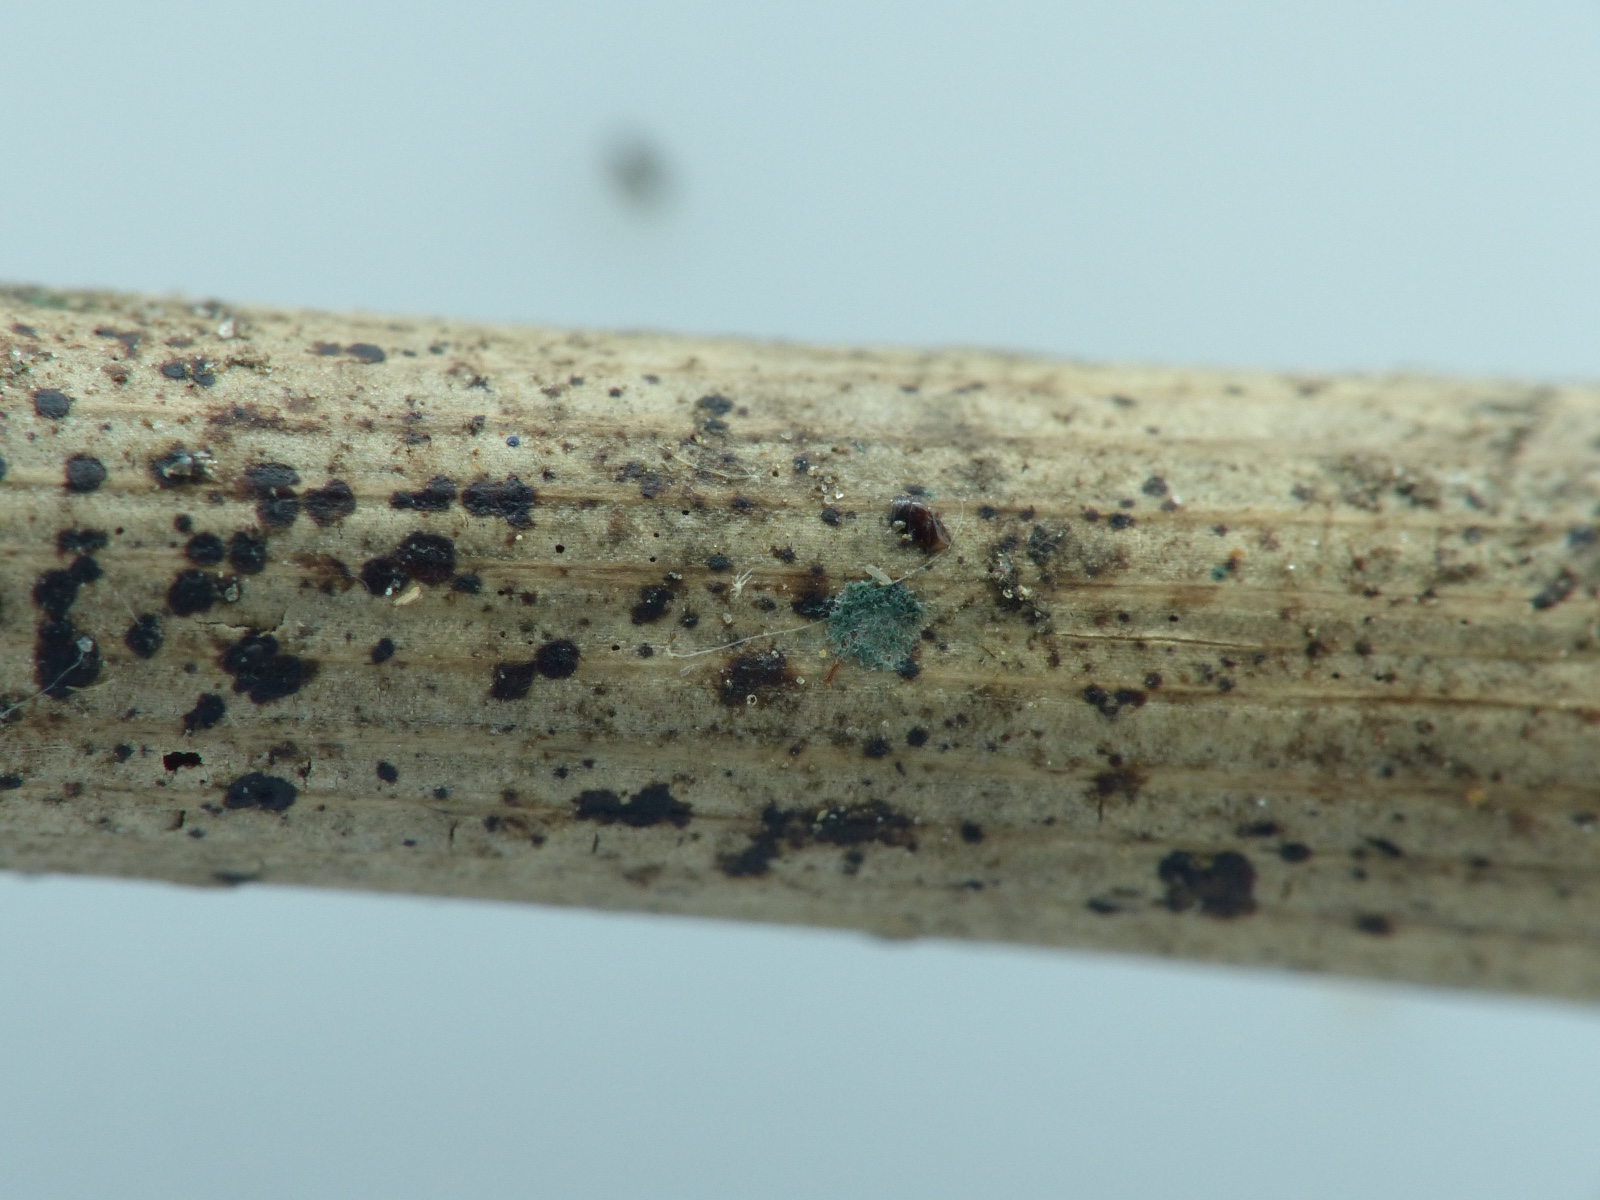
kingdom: Fungi
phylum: Ascomycota
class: Sordariomycetes
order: Hypocreales
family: Hypocreaceae
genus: Trichoderma
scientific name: Trichoderma spinulosum
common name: grågrøn kødkerne
